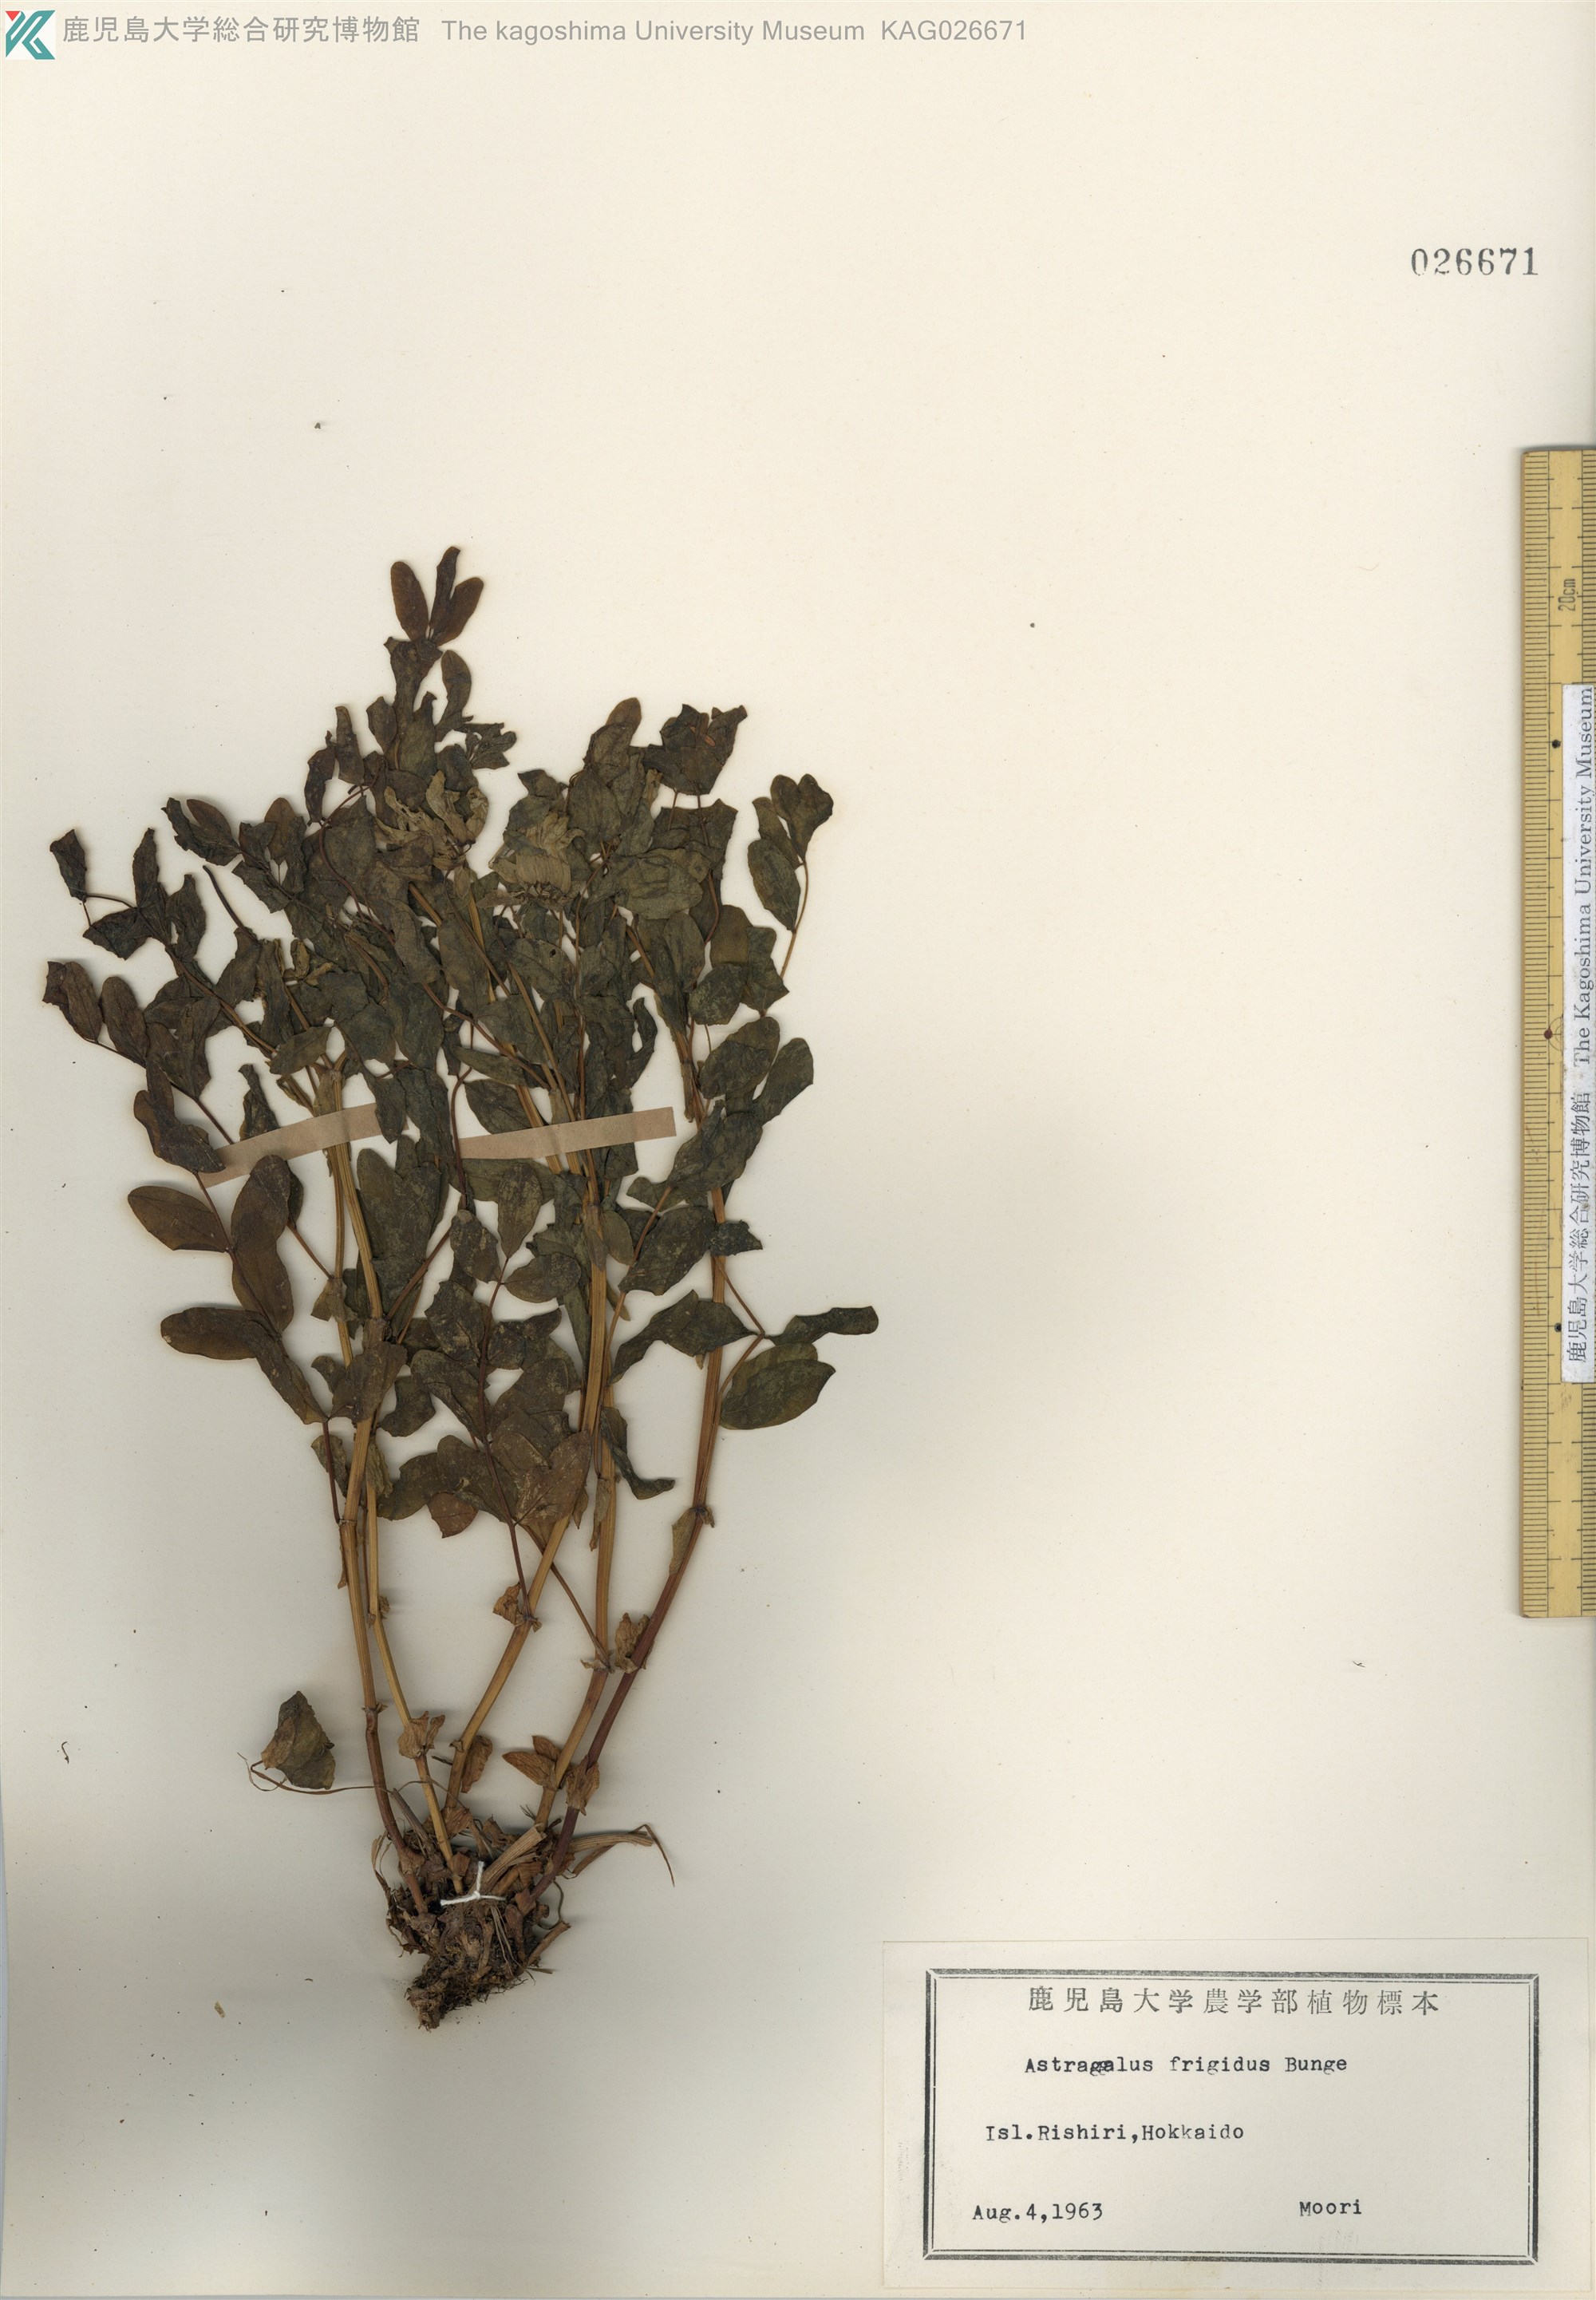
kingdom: Plantae
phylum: Tracheophyta
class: Magnoliopsida
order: Fabales
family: Fabaceae
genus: Astragalus
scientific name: Astragalus frigidus
